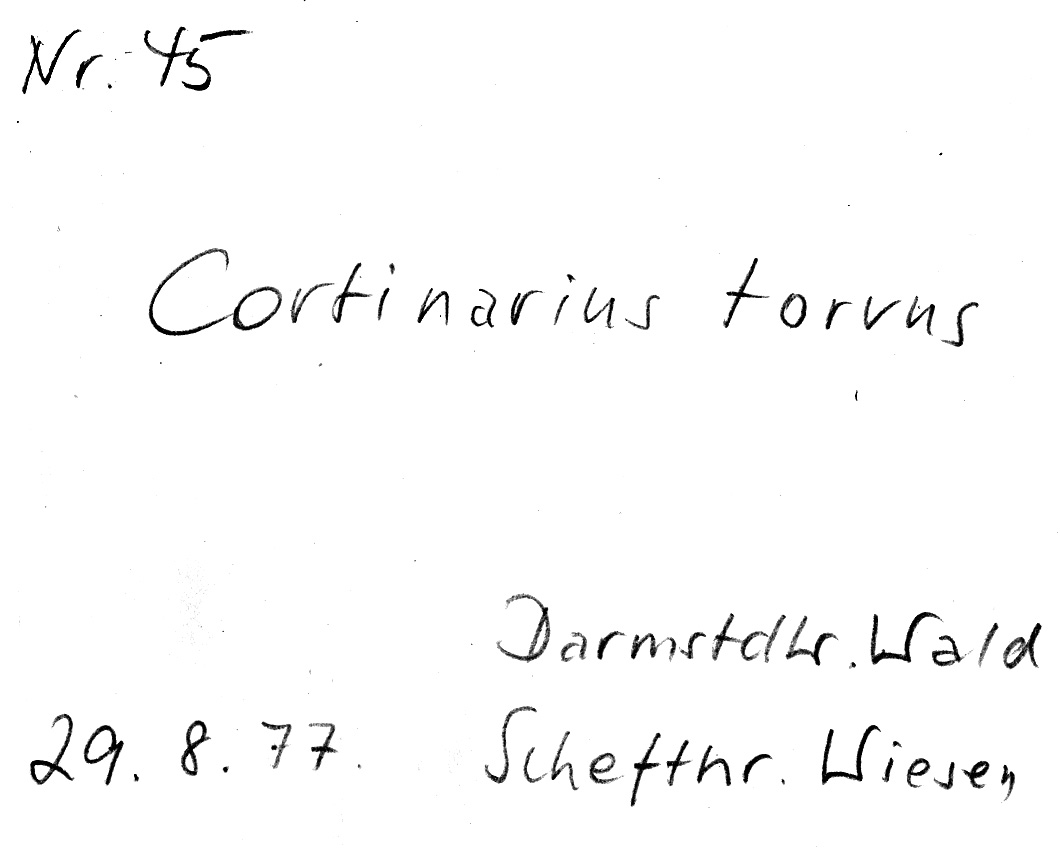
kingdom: Fungi
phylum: Basidiomycota
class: Agaricomycetes
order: Agaricales
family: Cortinariaceae
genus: Cortinarius
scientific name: Cortinarius torvus
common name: Stocking webcap
